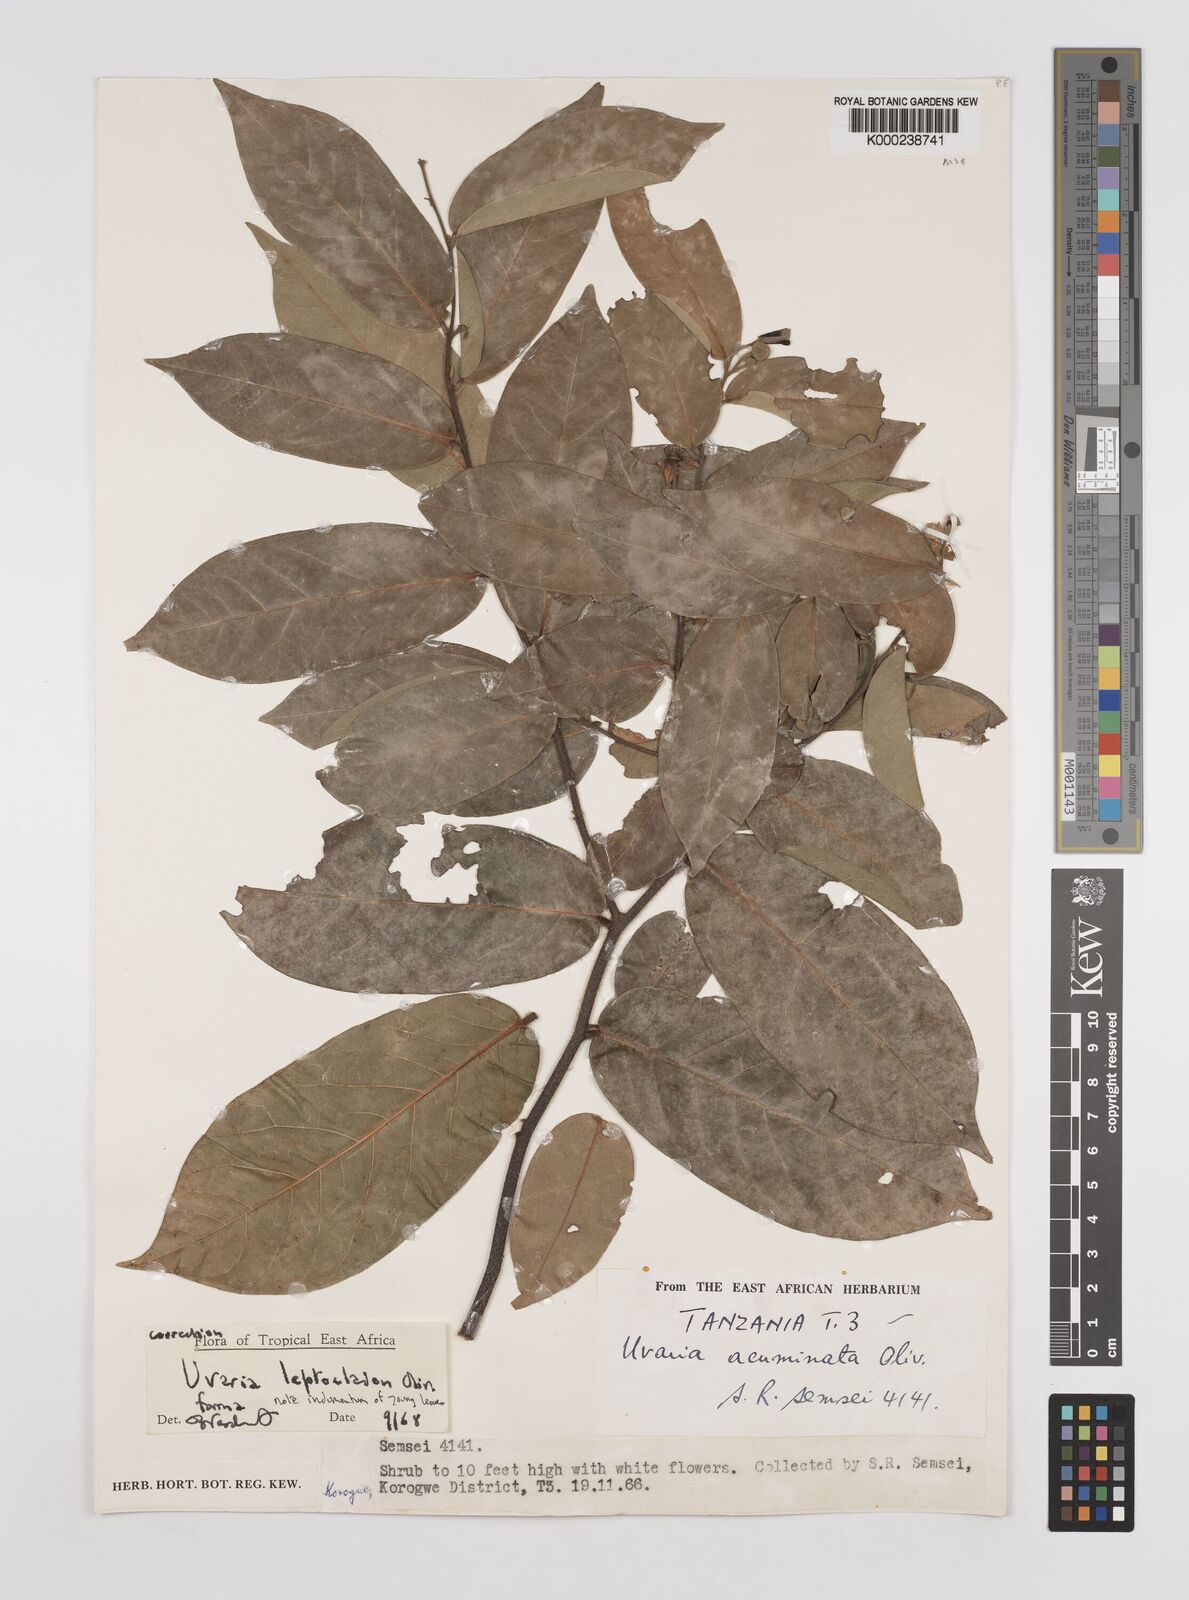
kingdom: Plantae
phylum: Tracheophyta
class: Magnoliopsida
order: Magnoliales
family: Annonaceae
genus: Uvaria
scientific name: Uvaria leptocladon
